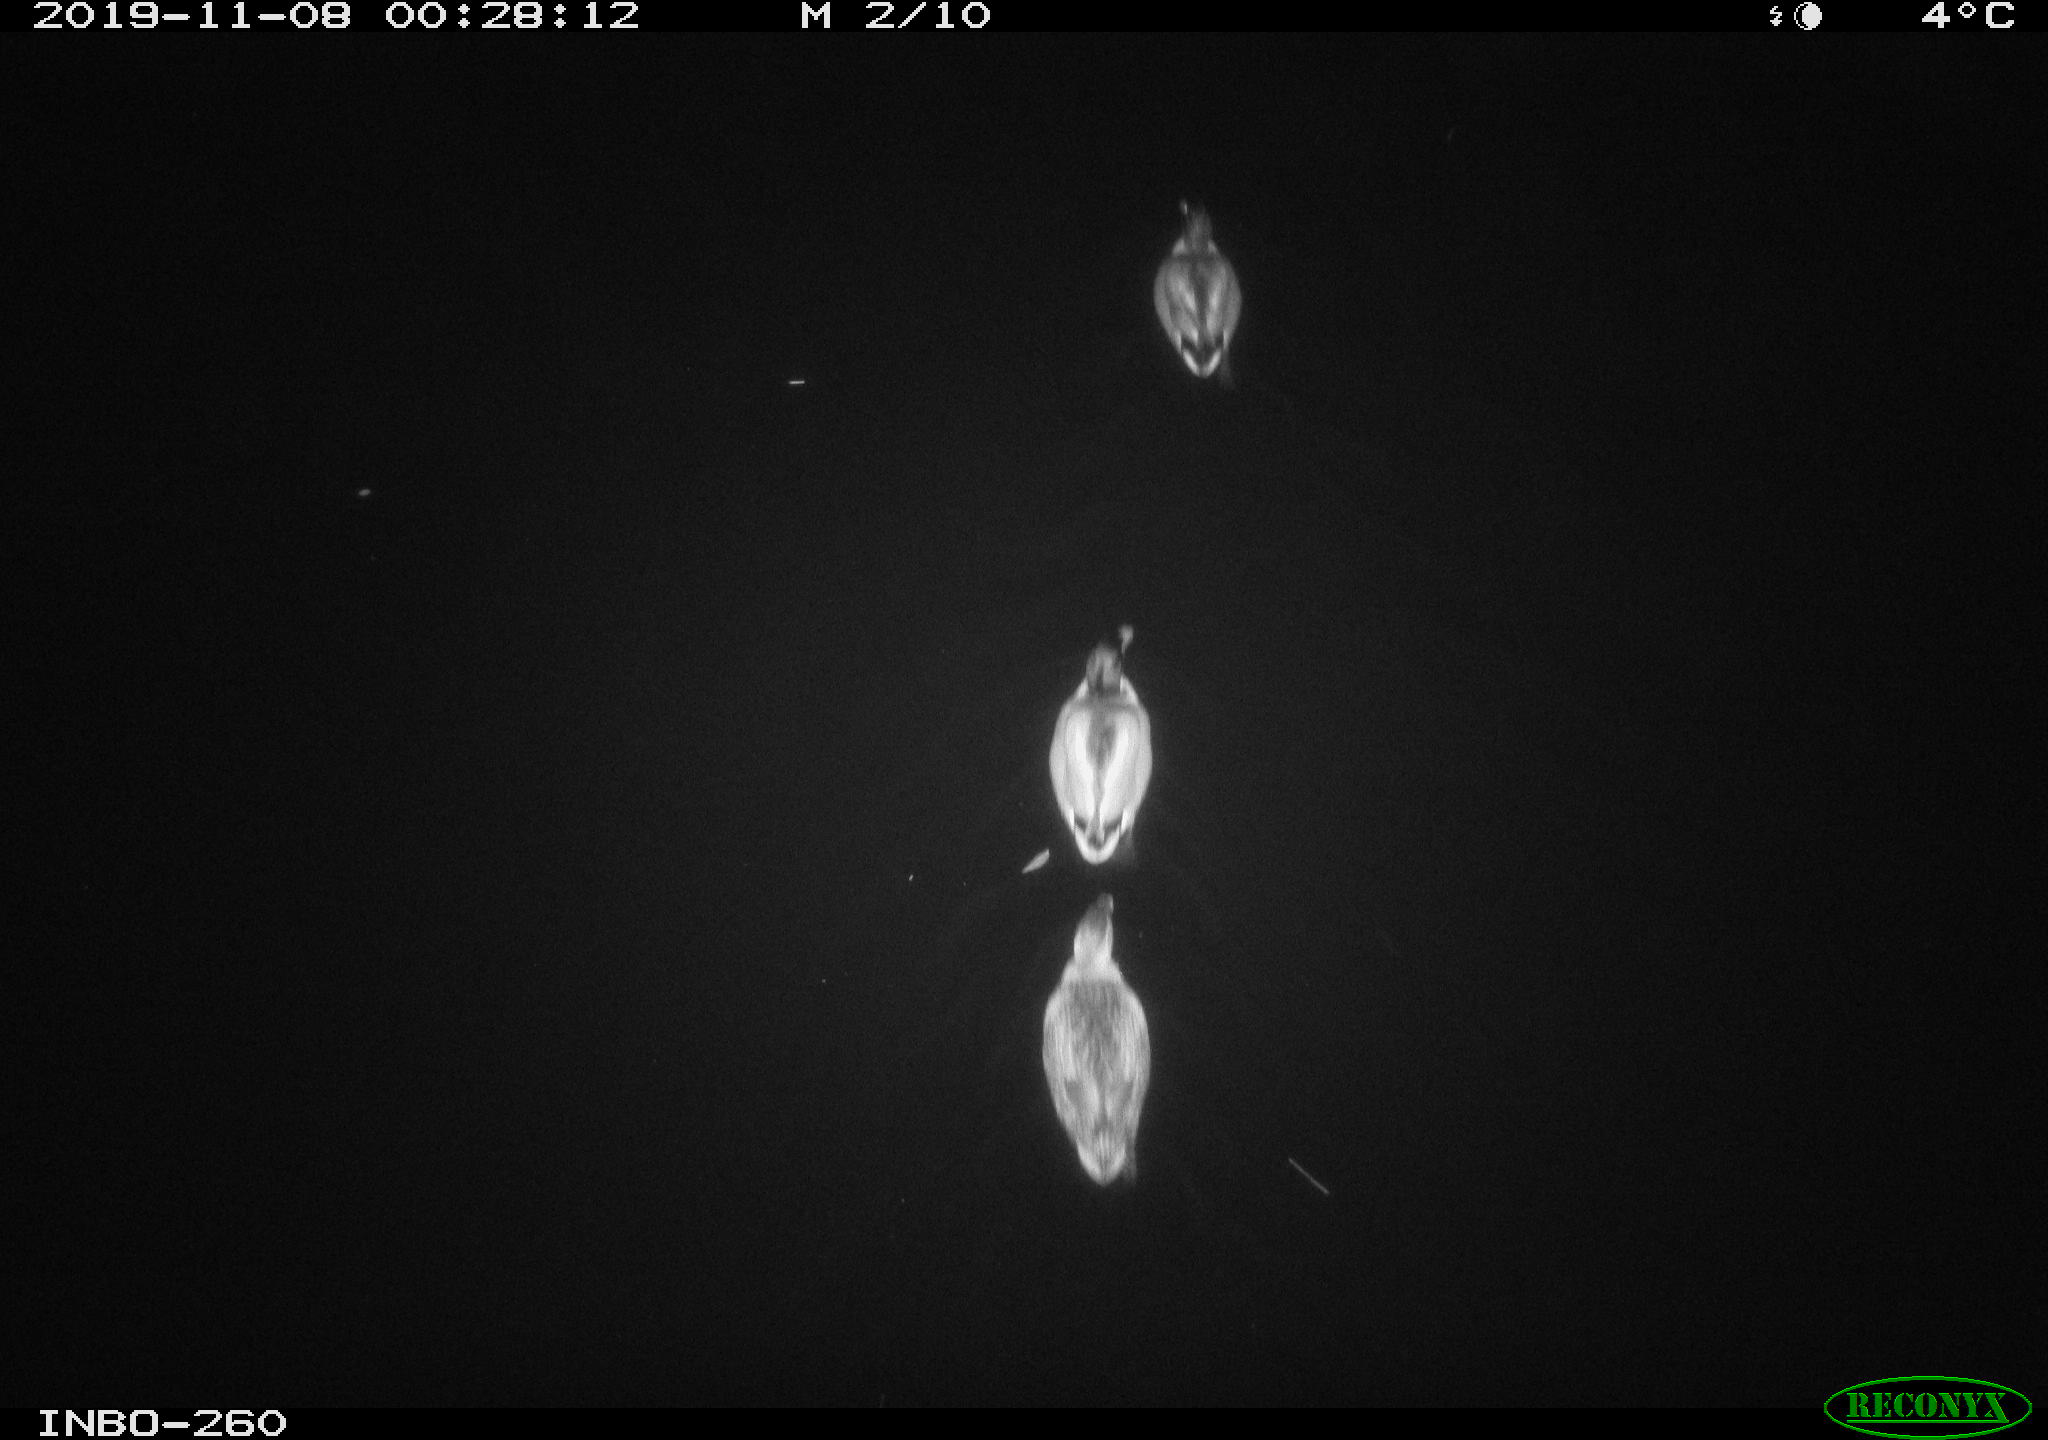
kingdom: Animalia
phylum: Chordata
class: Aves
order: Anseriformes
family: Anatidae
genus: Anas
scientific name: Anas platyrhynchos
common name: Mallard
